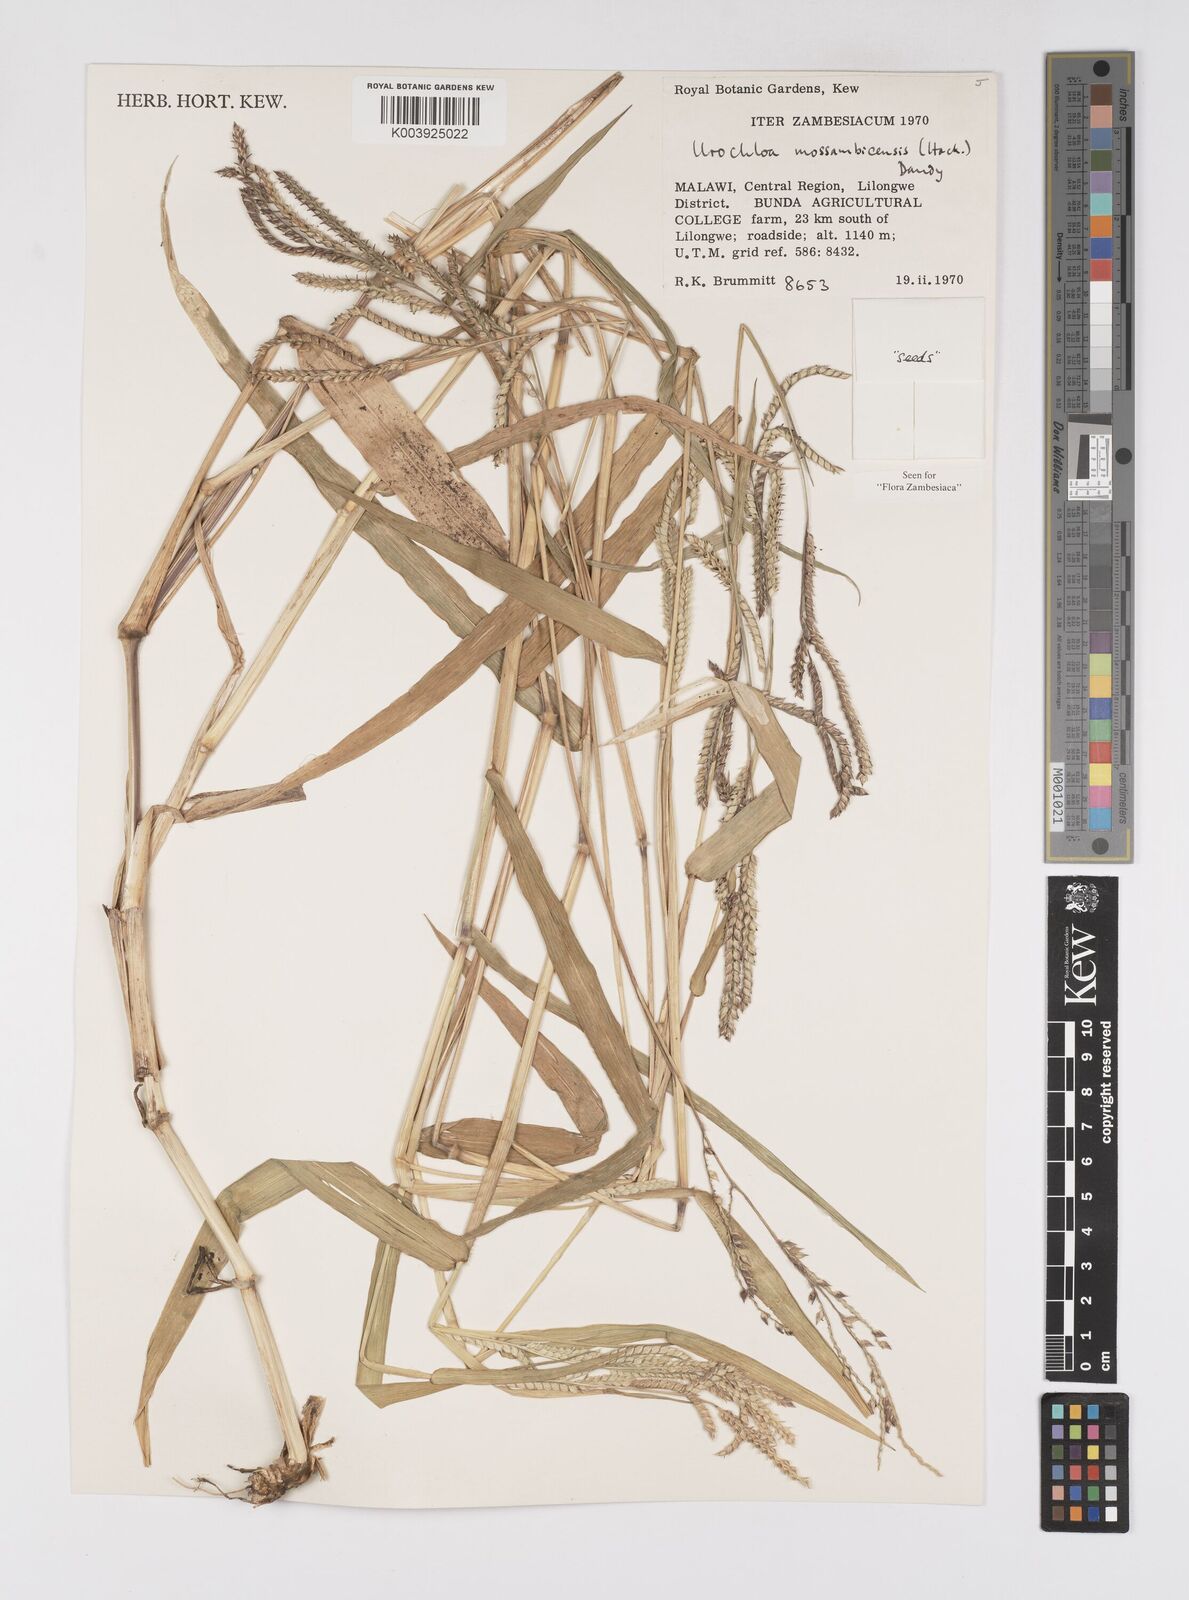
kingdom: Plantae
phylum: Tracheophyta
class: Liliopsida
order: Poales
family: Poaceae
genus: Urochloa
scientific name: Urochloa trichopus
